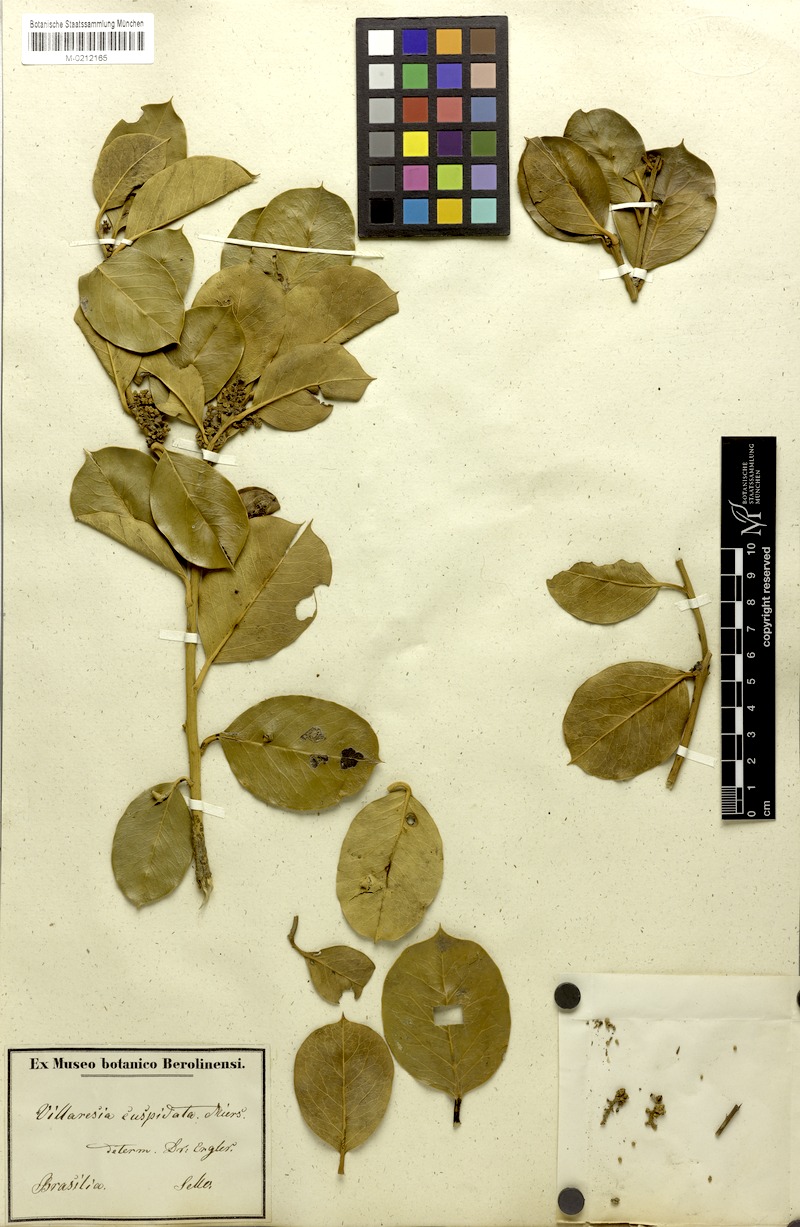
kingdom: Plantae
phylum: Tracheophyta
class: Magnoliopsida
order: Cardiopteridales
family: Cardiopteridaceae
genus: Citronella
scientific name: Citronella gongonha
